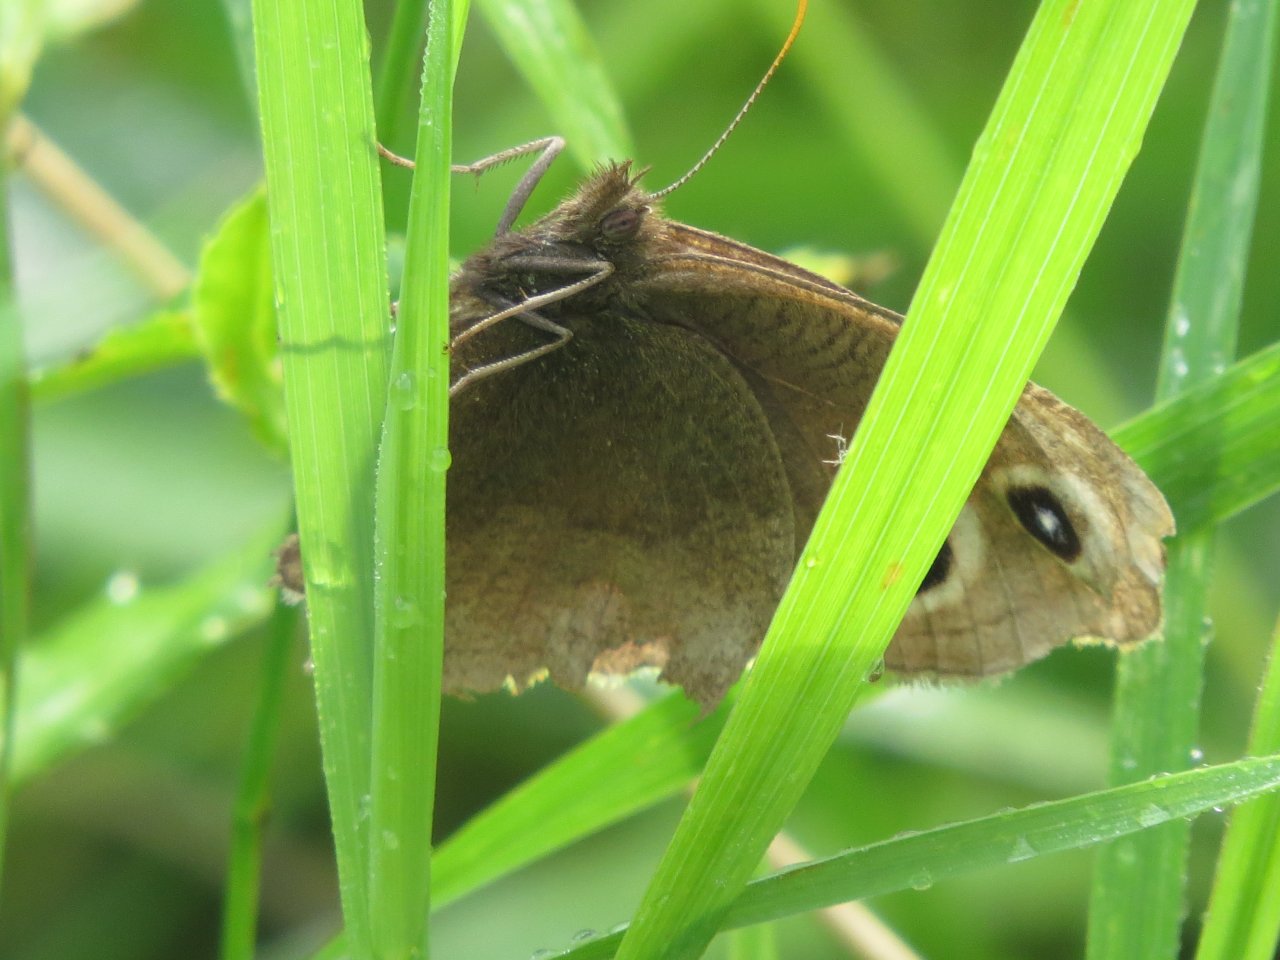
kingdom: Animalia
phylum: Arthropoda
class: Insecta
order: Lepidoptera
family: Nymphalidae
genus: Cercyonis
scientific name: Cercyonis pegala
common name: Common Wood-Nymph
